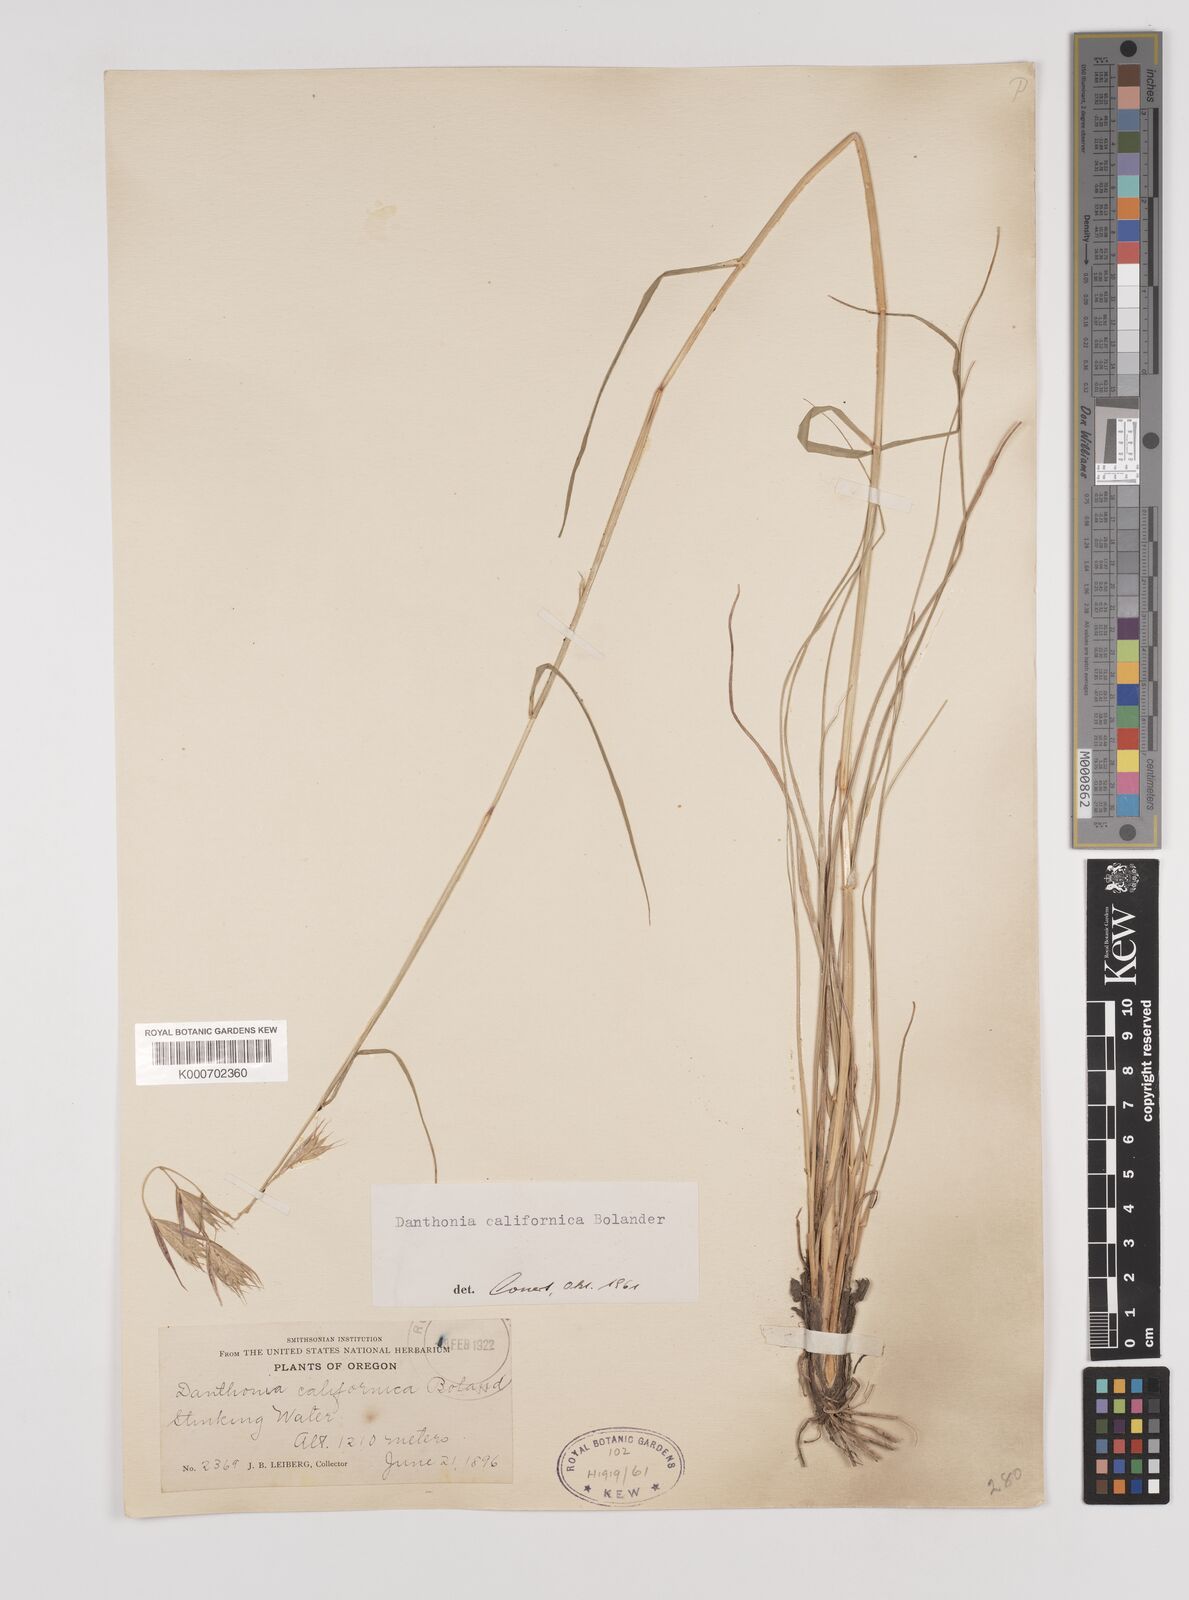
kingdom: Plantae
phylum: Tracheophyta
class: Liliopsida
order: Poales
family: Poaceae
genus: Danthonia
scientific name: Danthonia californica
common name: California oat grass
